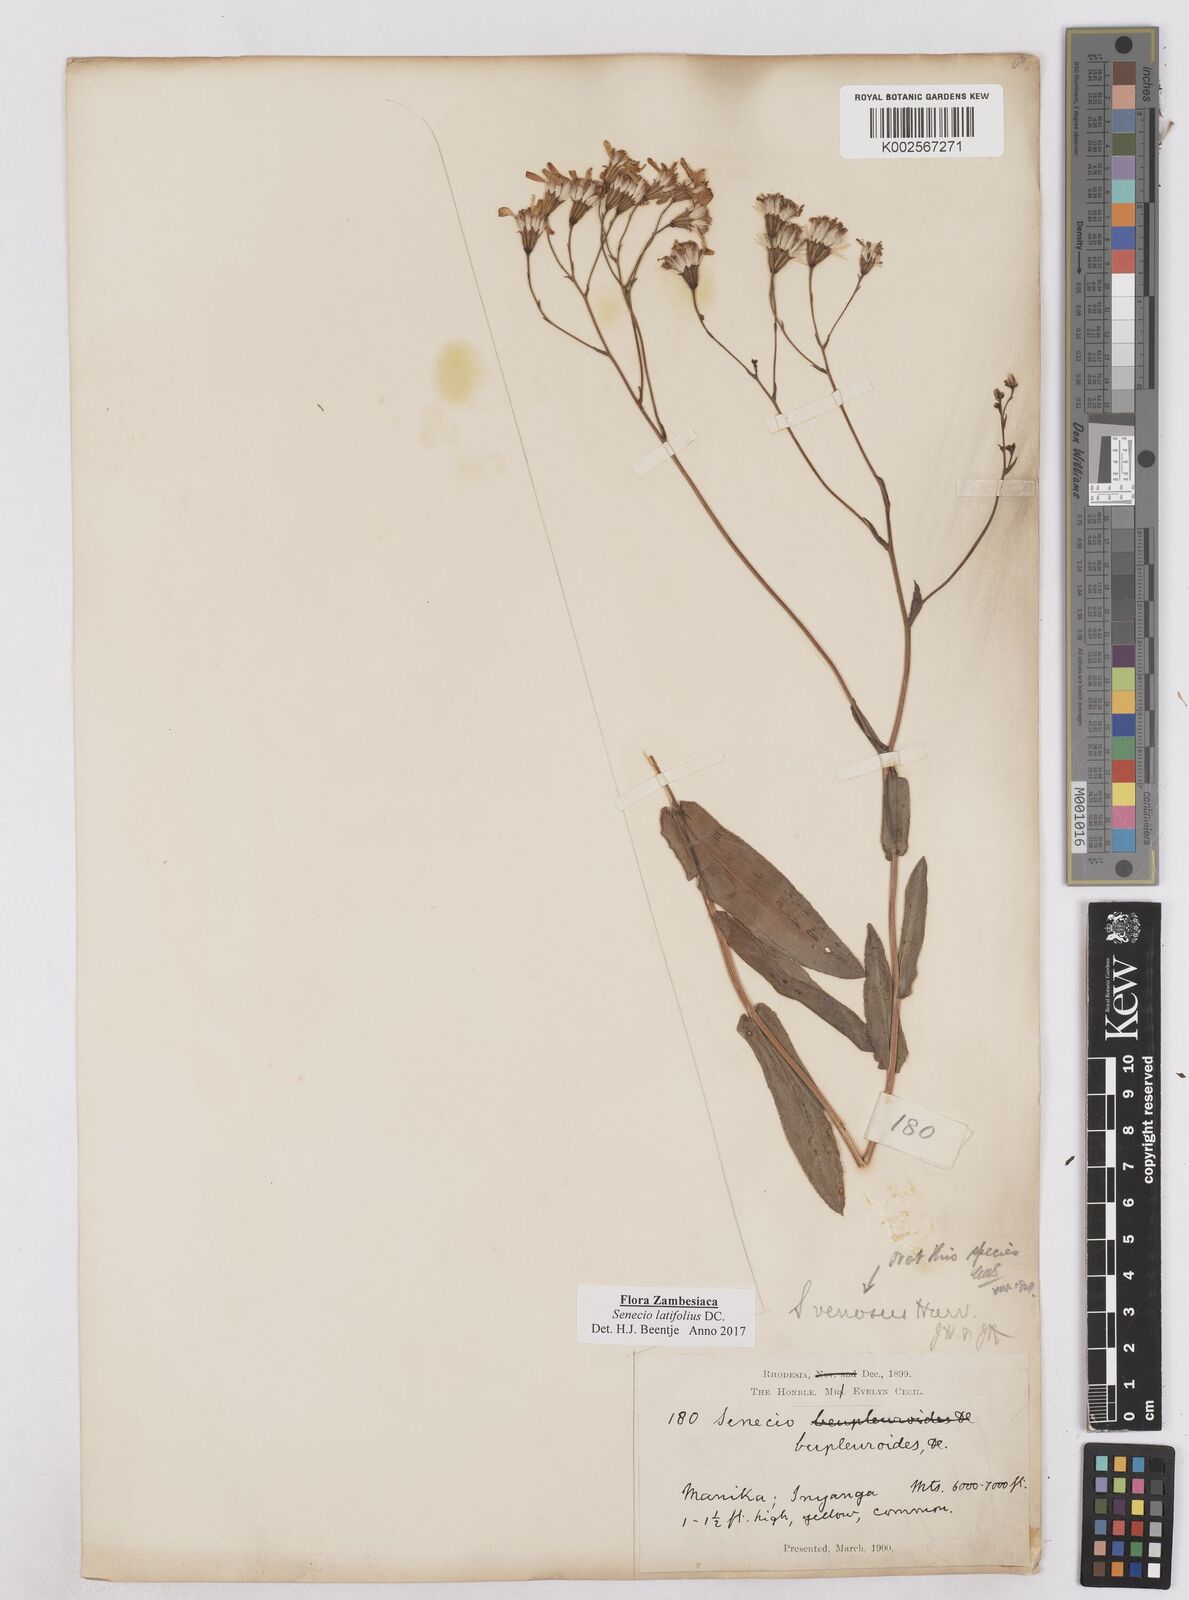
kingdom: Plantae
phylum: Tracheophyta
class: Magnoliopsida
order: Asterales
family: Asteraceae
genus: Senecio
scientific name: Senecio latifolius
